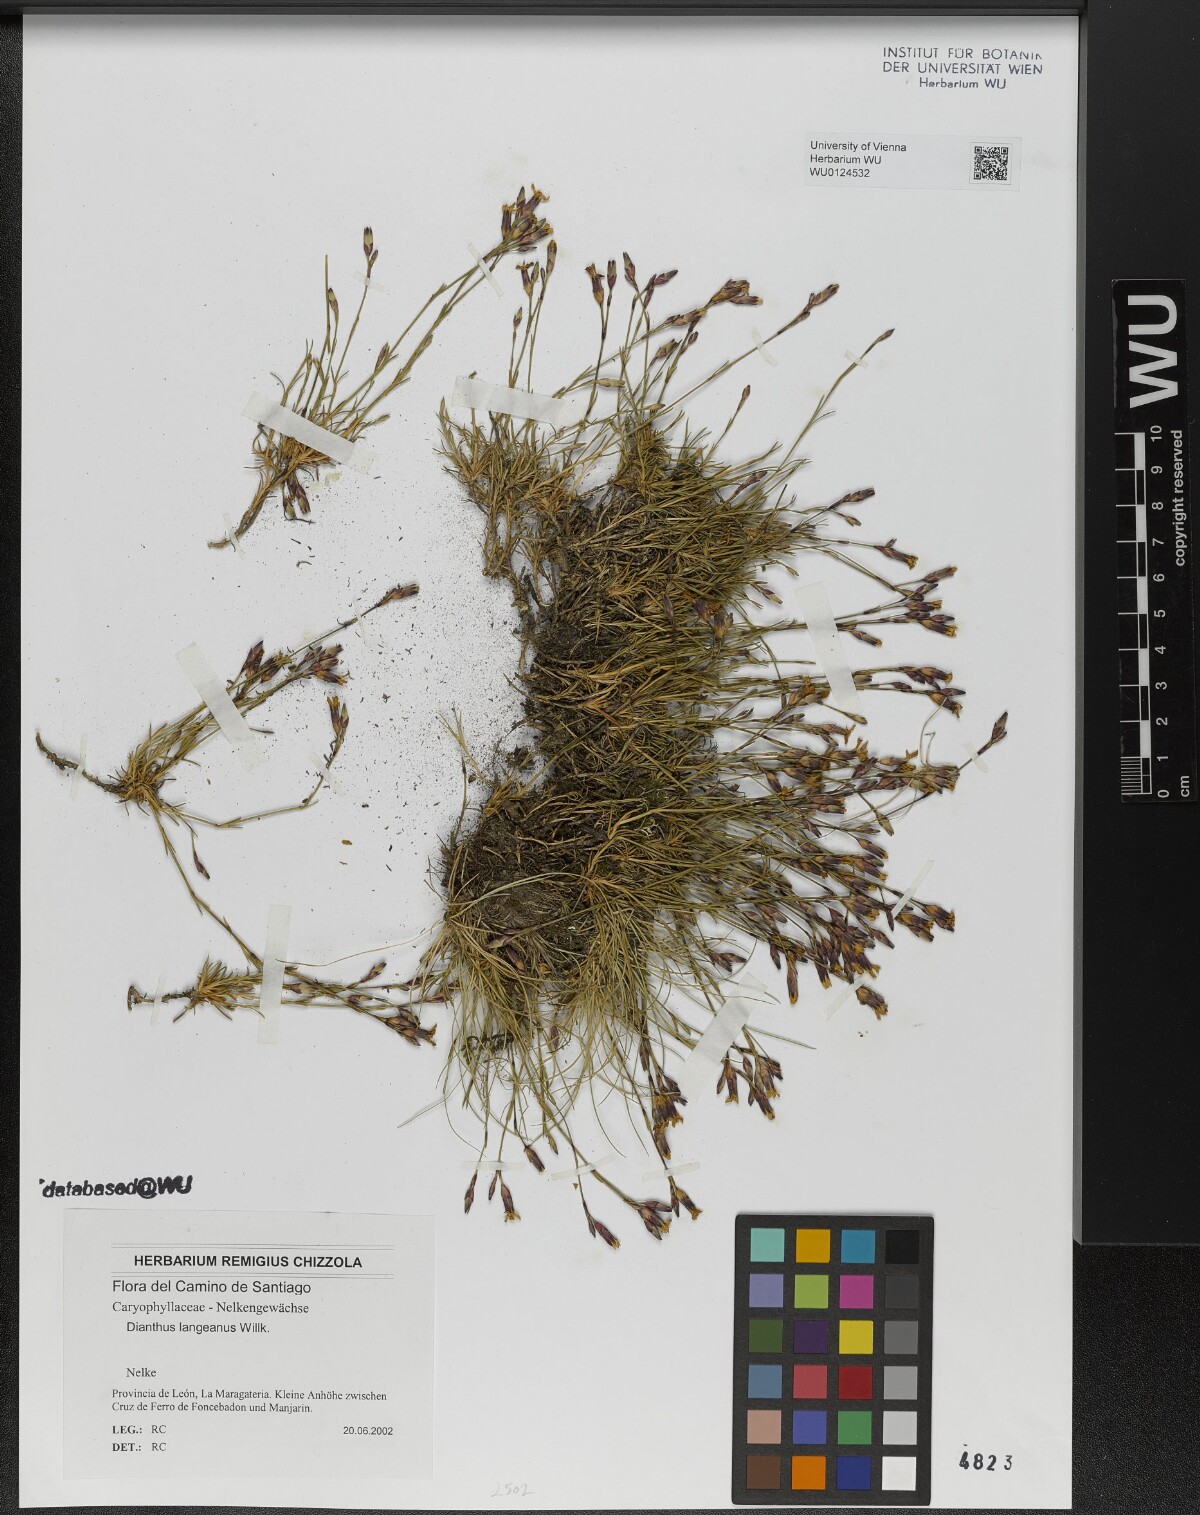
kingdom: Plantae
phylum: Tracheophyta
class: Magnoliopsida
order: Caryophyllales
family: Caryophyllaceae
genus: Dianthus
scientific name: Dianthus langeanus
